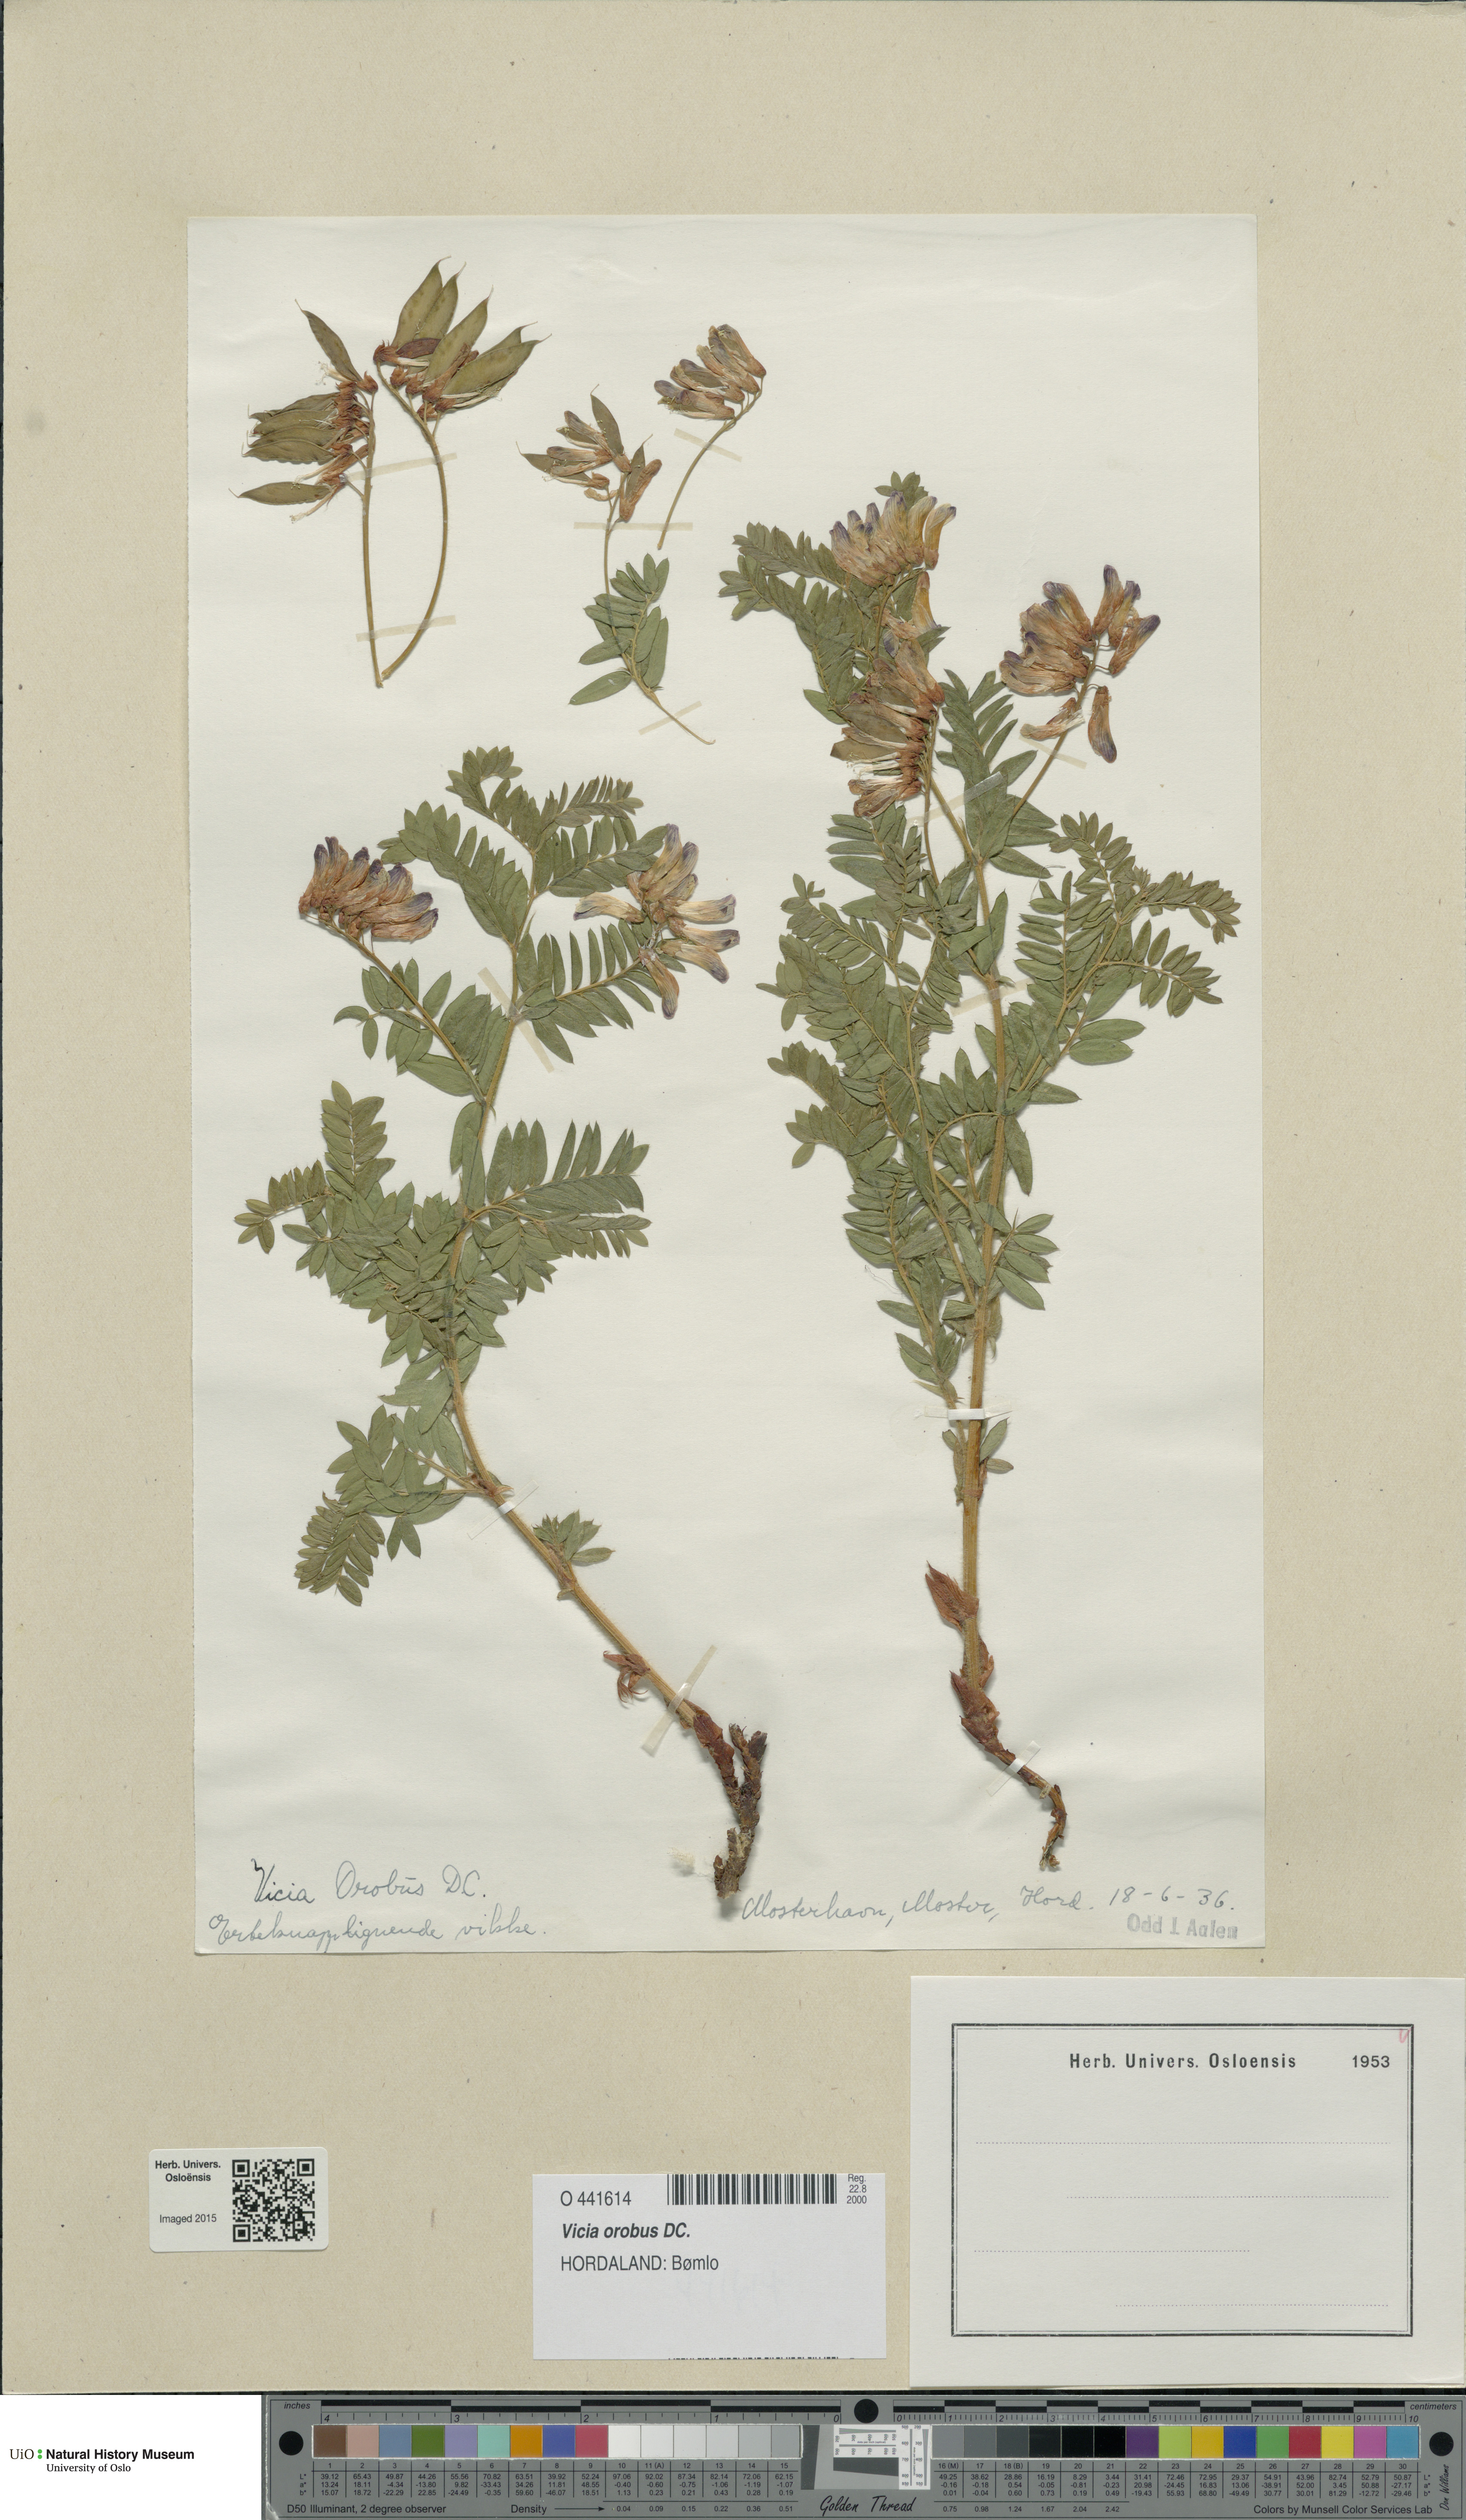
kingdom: Plantae
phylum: Tracheophyta
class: Magnoliopsida
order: Fabales
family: Fabaceae
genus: Vicia
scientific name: Vicia orobus
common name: Wood bitter-vetch
